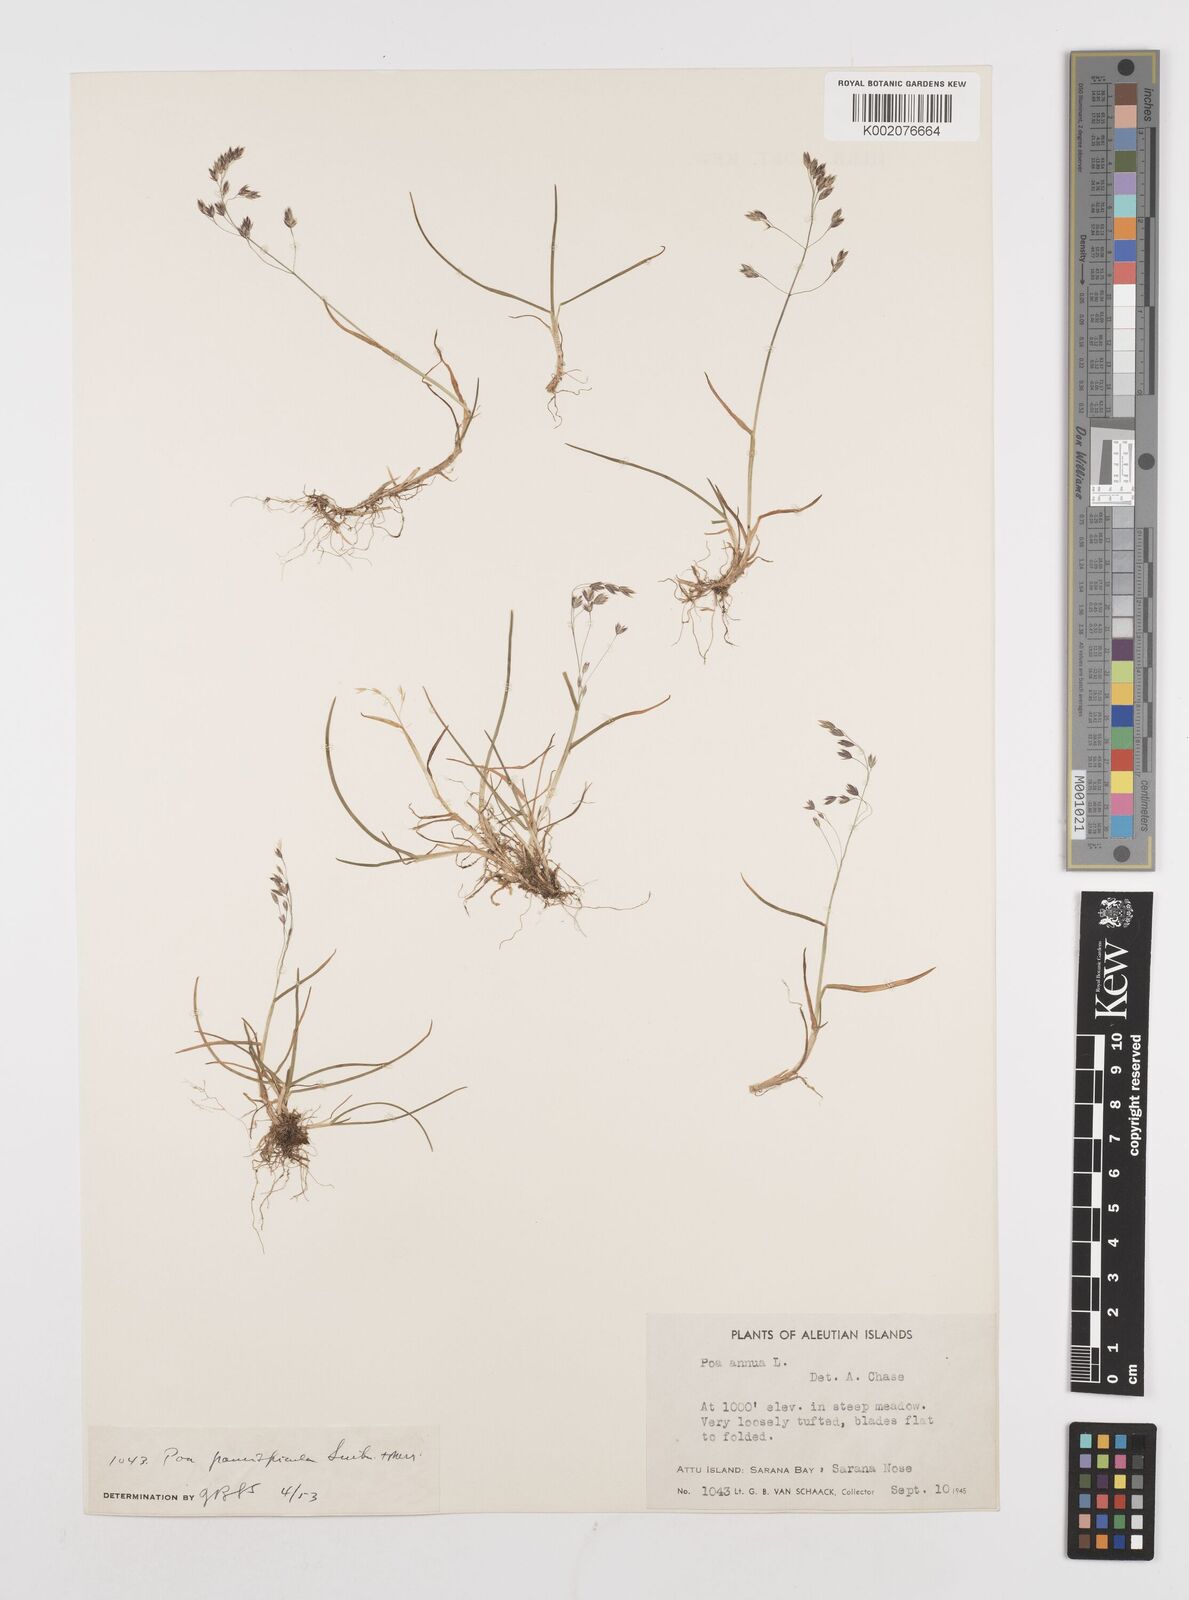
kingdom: Plantae
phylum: Tracheophyta
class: Liliopsida
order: Poales
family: Poaceae
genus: Poa
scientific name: Poa paucispicula
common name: Alaska bluegrass
